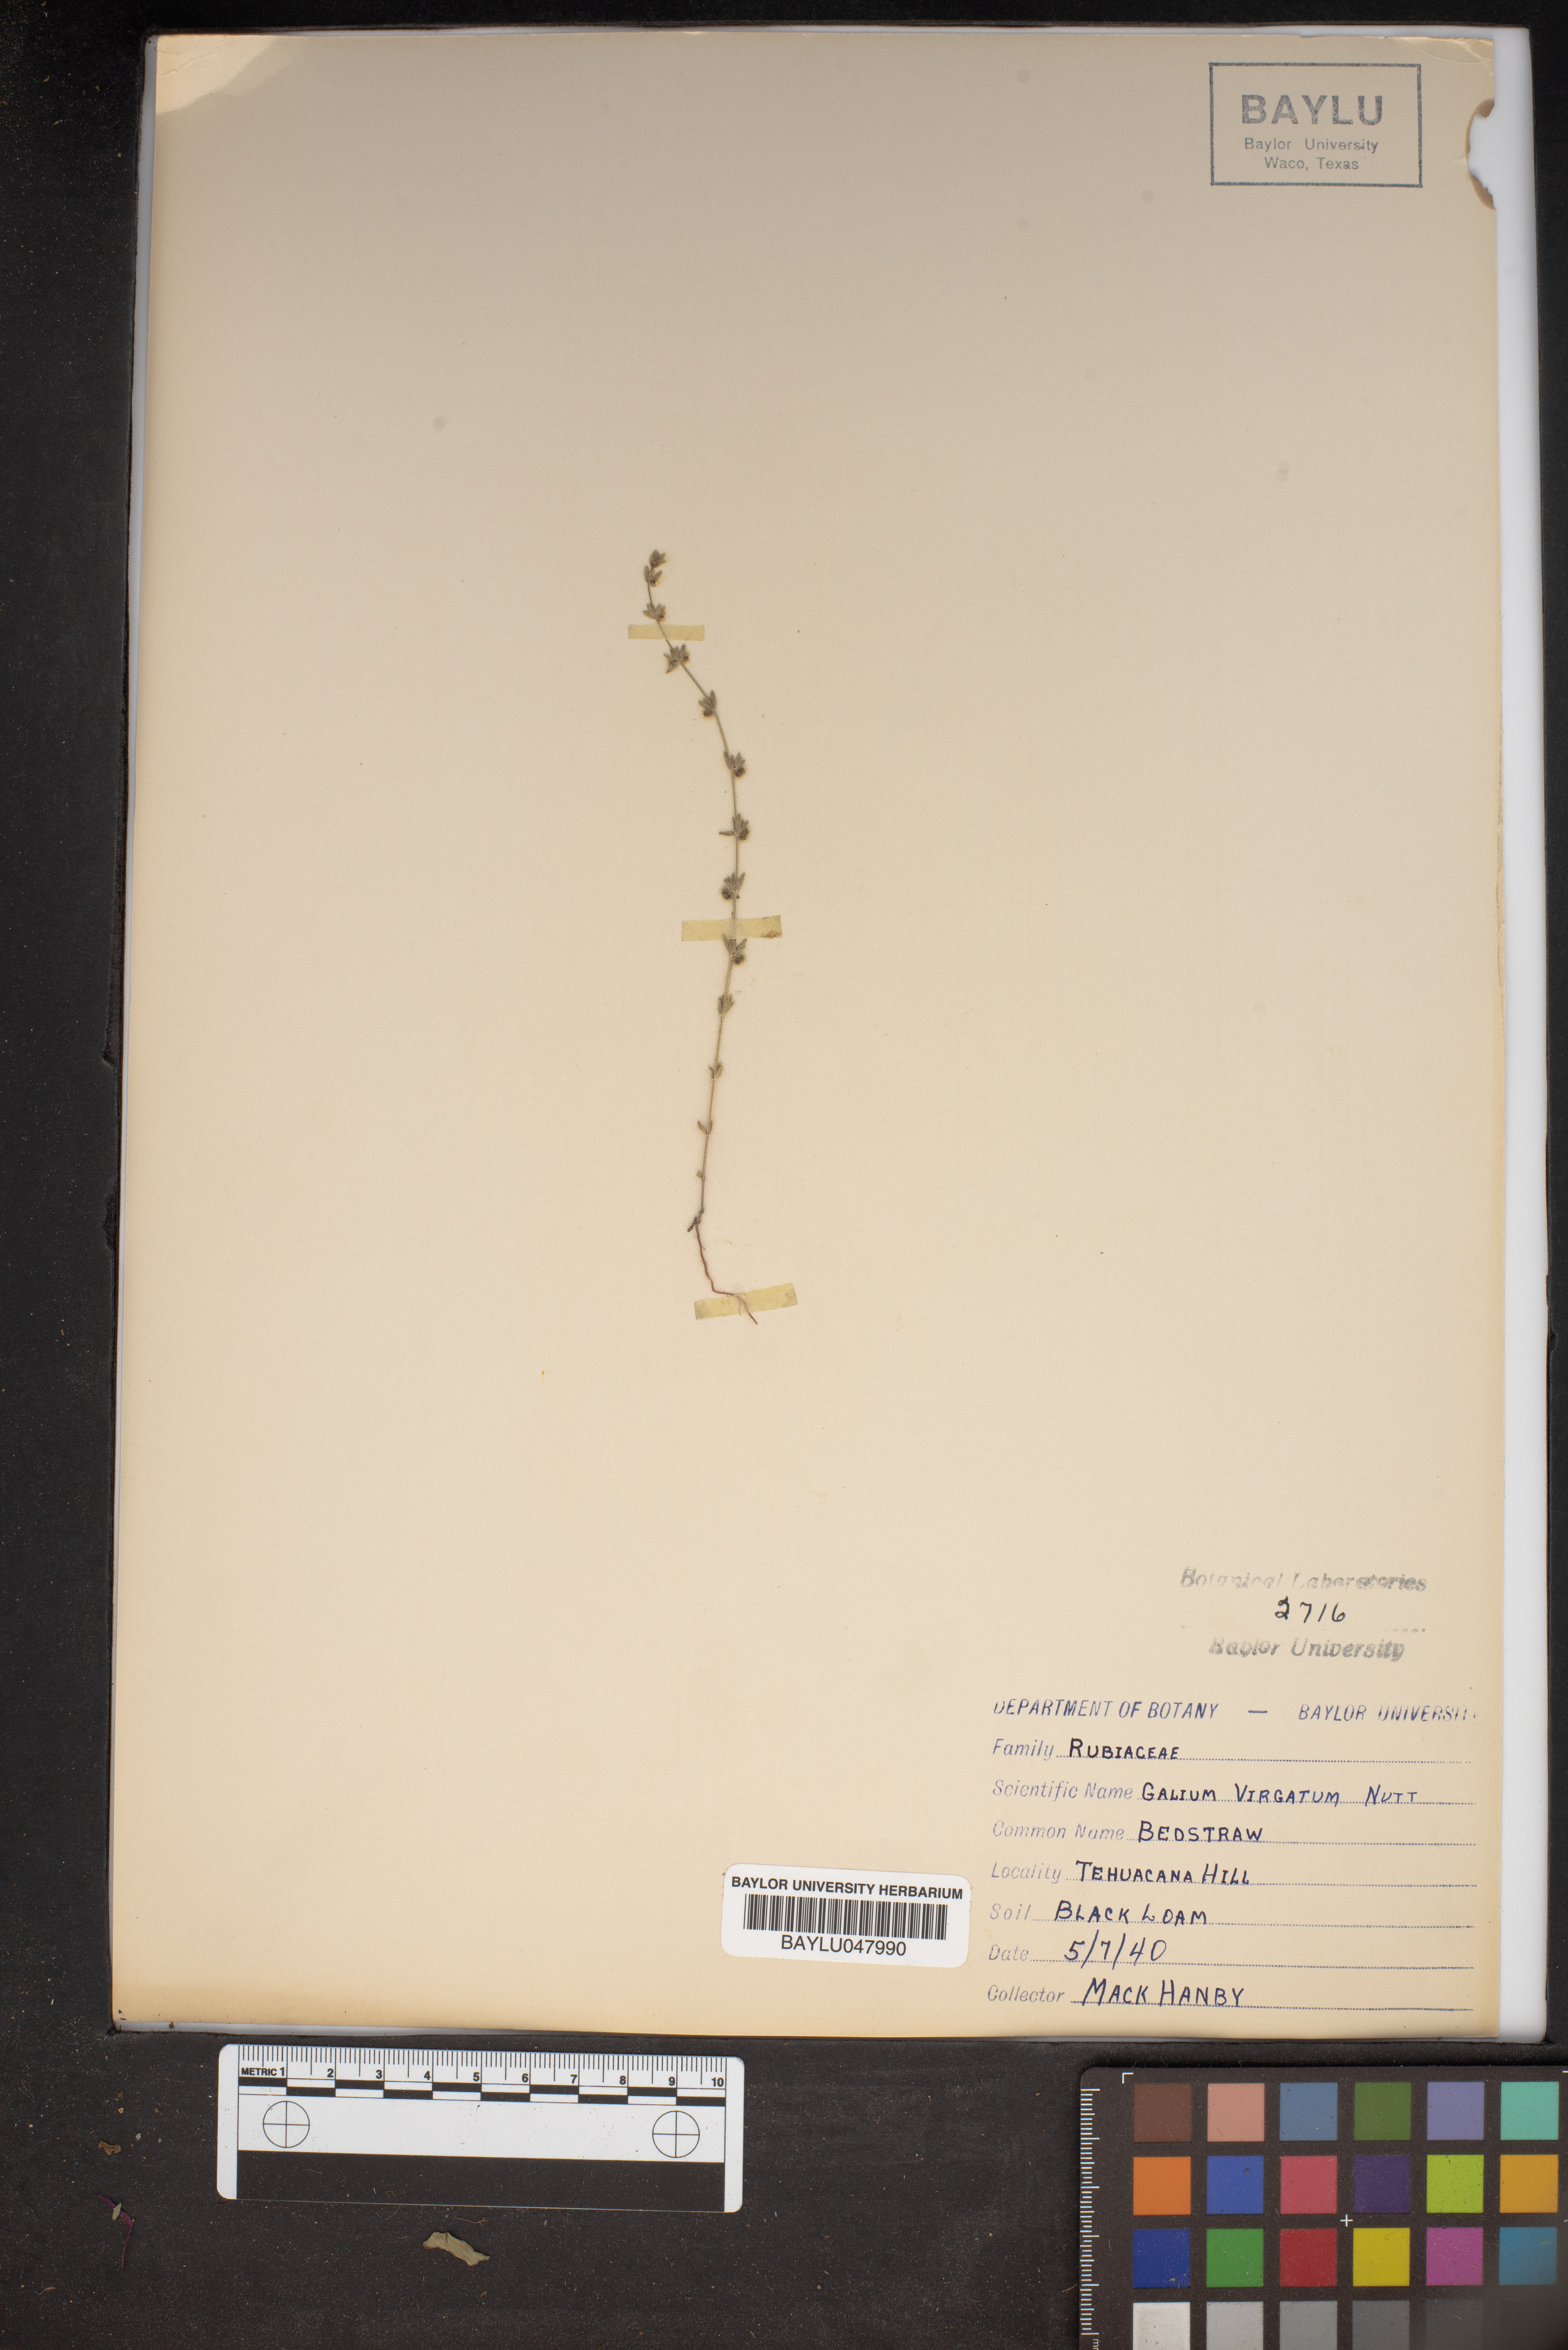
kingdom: Plantae
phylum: Tracheophyta
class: Magnoliopsida
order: Gentianales
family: Rubiaceae
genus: Galium
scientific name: Galium virgatum
